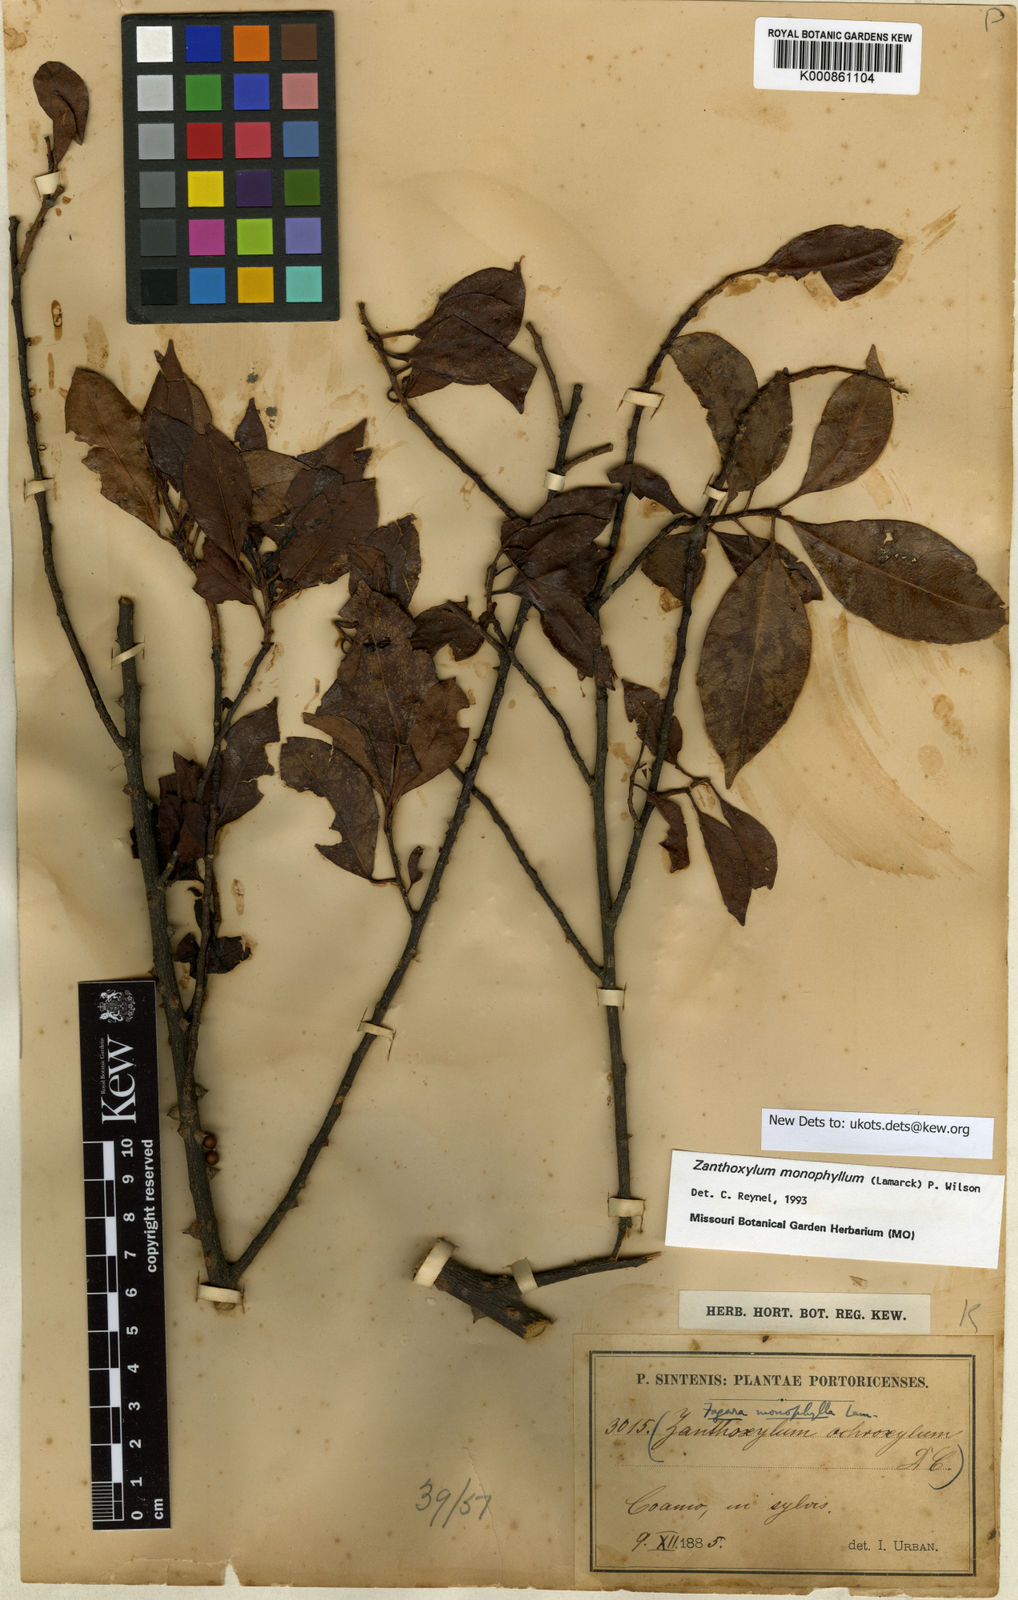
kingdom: Plantae
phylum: Tracheophyta
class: Magnoliopsida
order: Sapindales
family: Rutaceae
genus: Zanthoxylum
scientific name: Zanthoxylum schreberi
